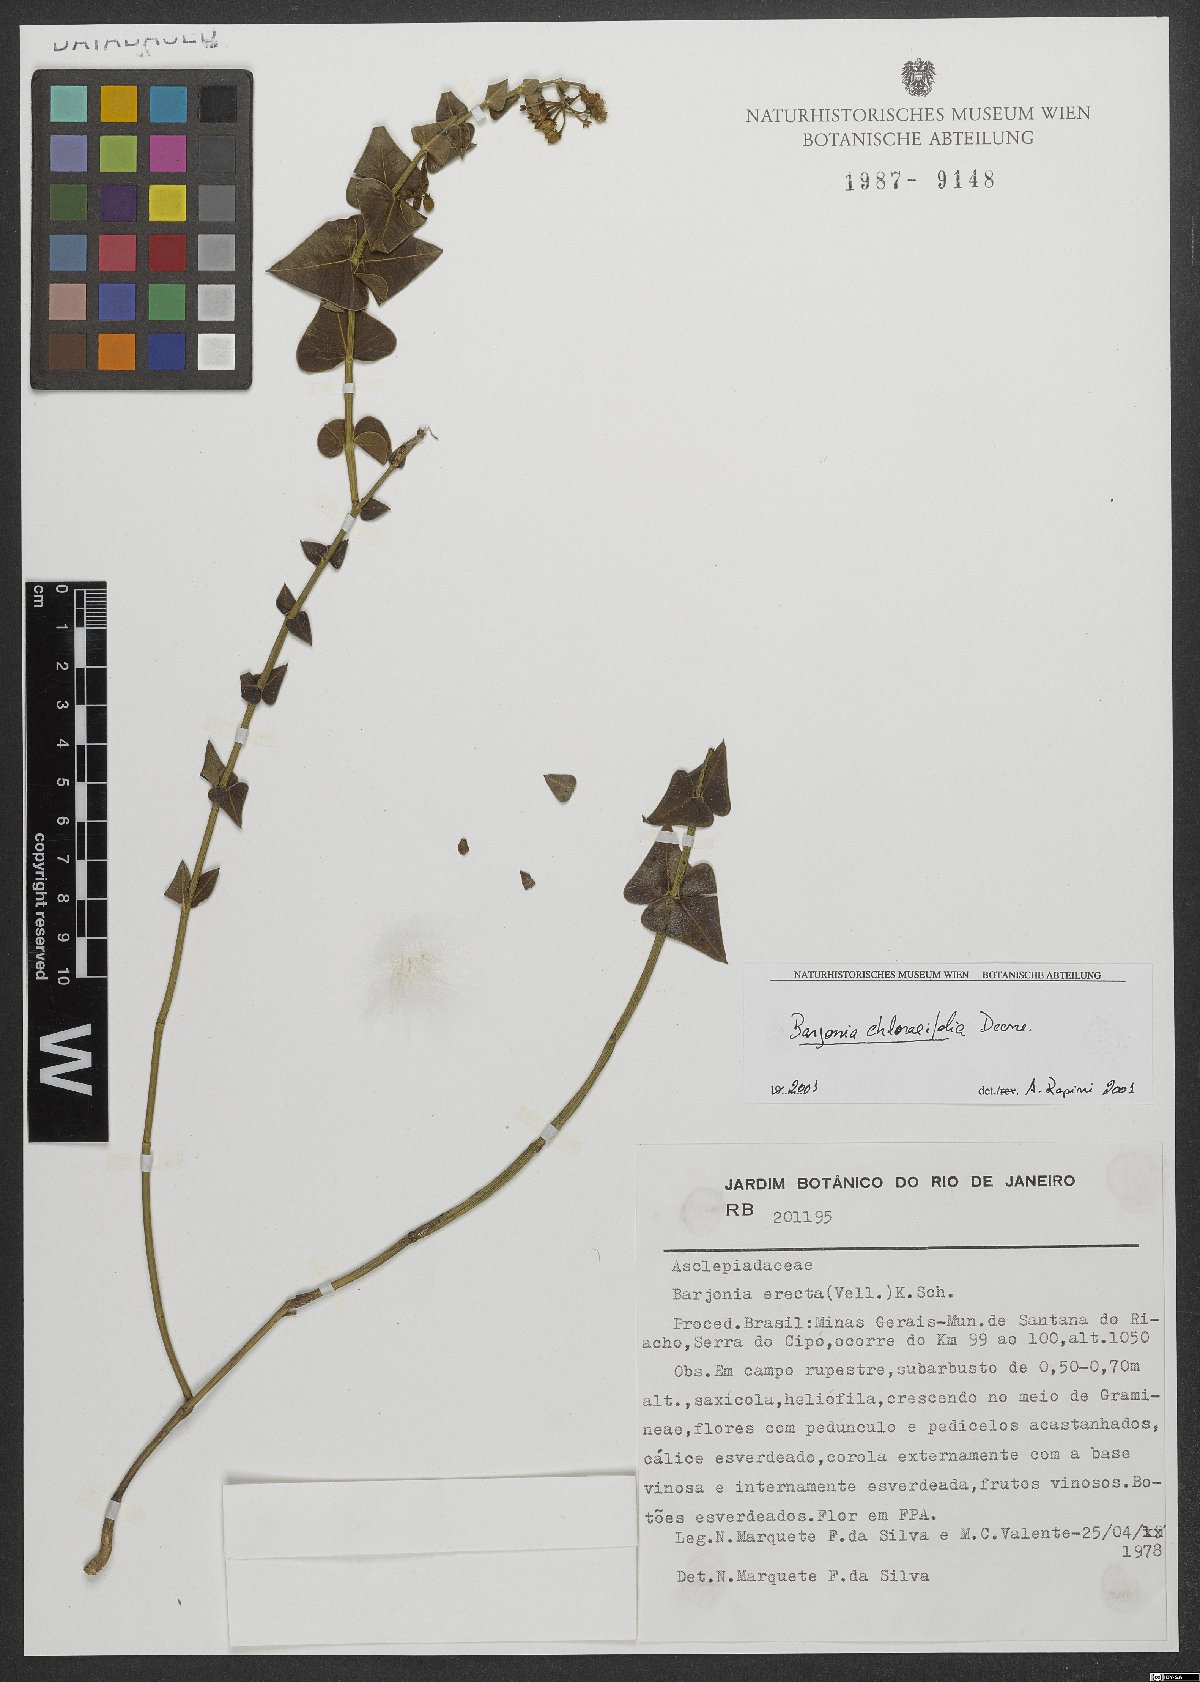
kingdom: Plantae
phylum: Tracheophyta
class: Magnoliopsida
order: Gentianales
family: Apocynaceae
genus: Barjonia
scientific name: Barjonia chlorifolia
